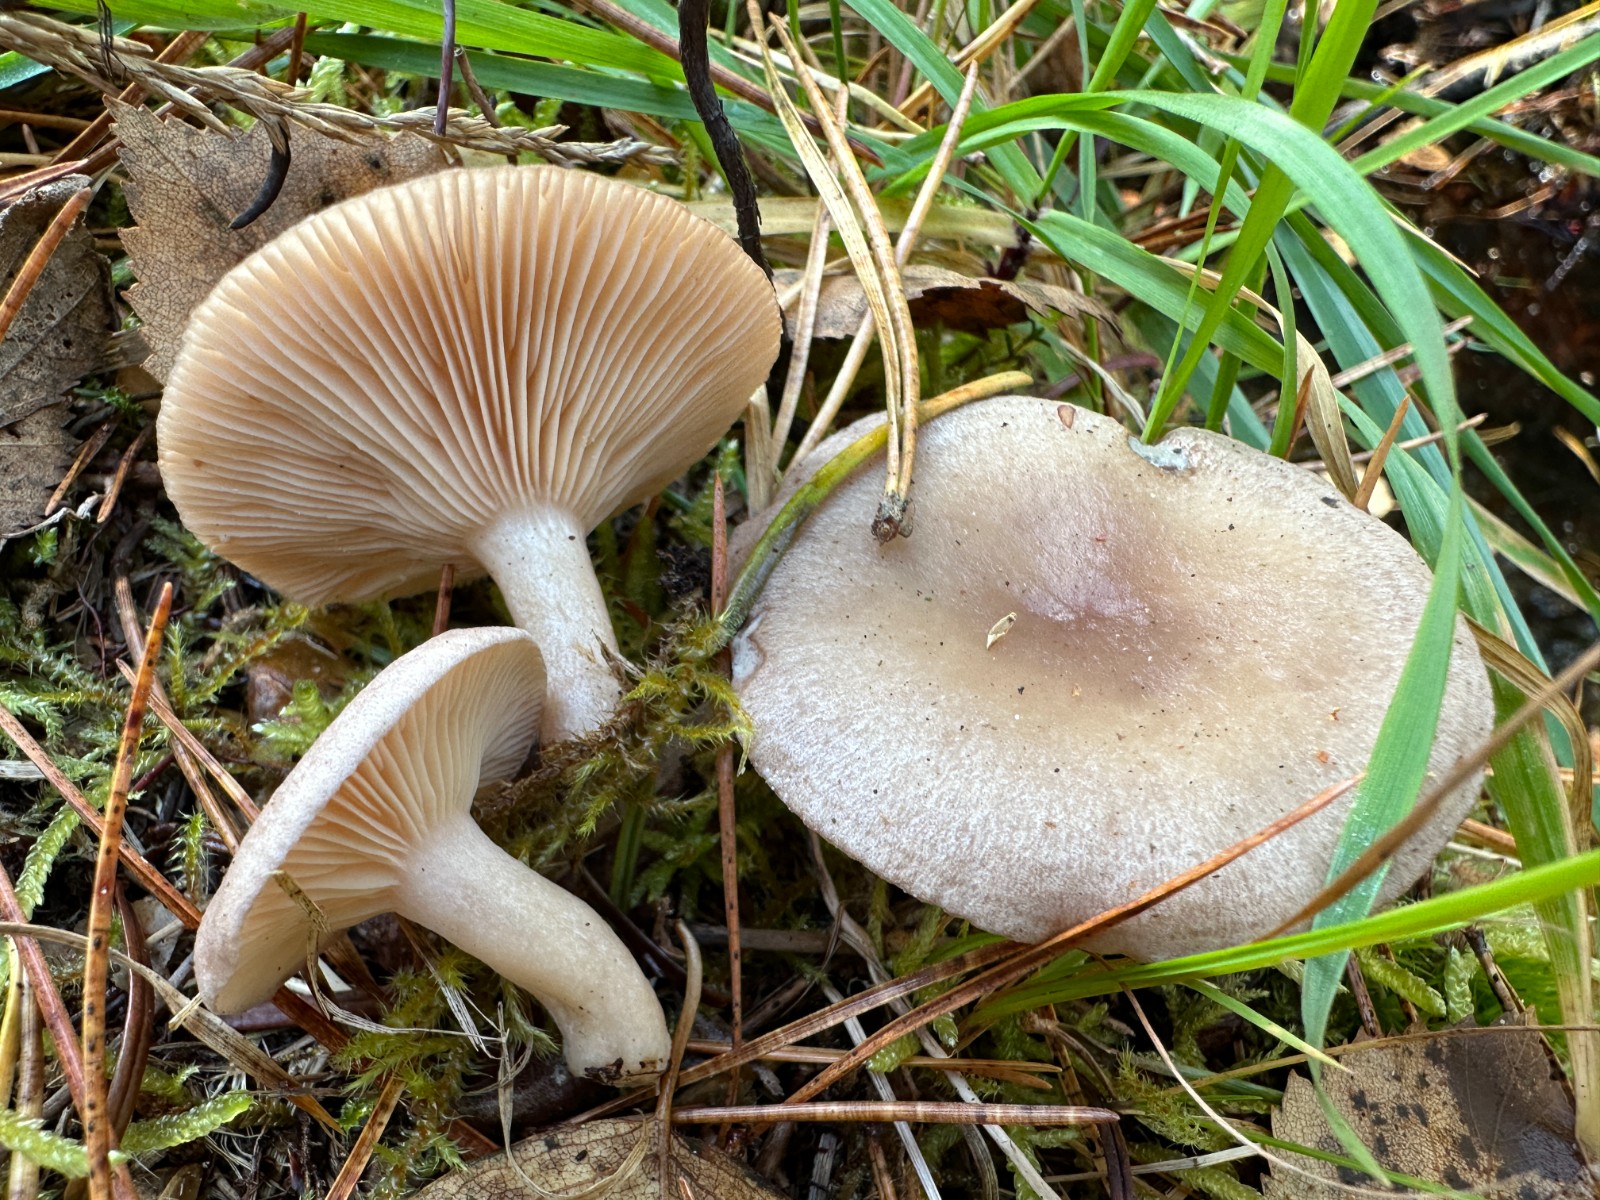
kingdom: Fungi
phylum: Basidiomycota
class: Agaricomycetes
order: Russulales
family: Russulaceae
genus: Lactarius
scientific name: Lactarius vietus
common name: violetgrå mælkehat
